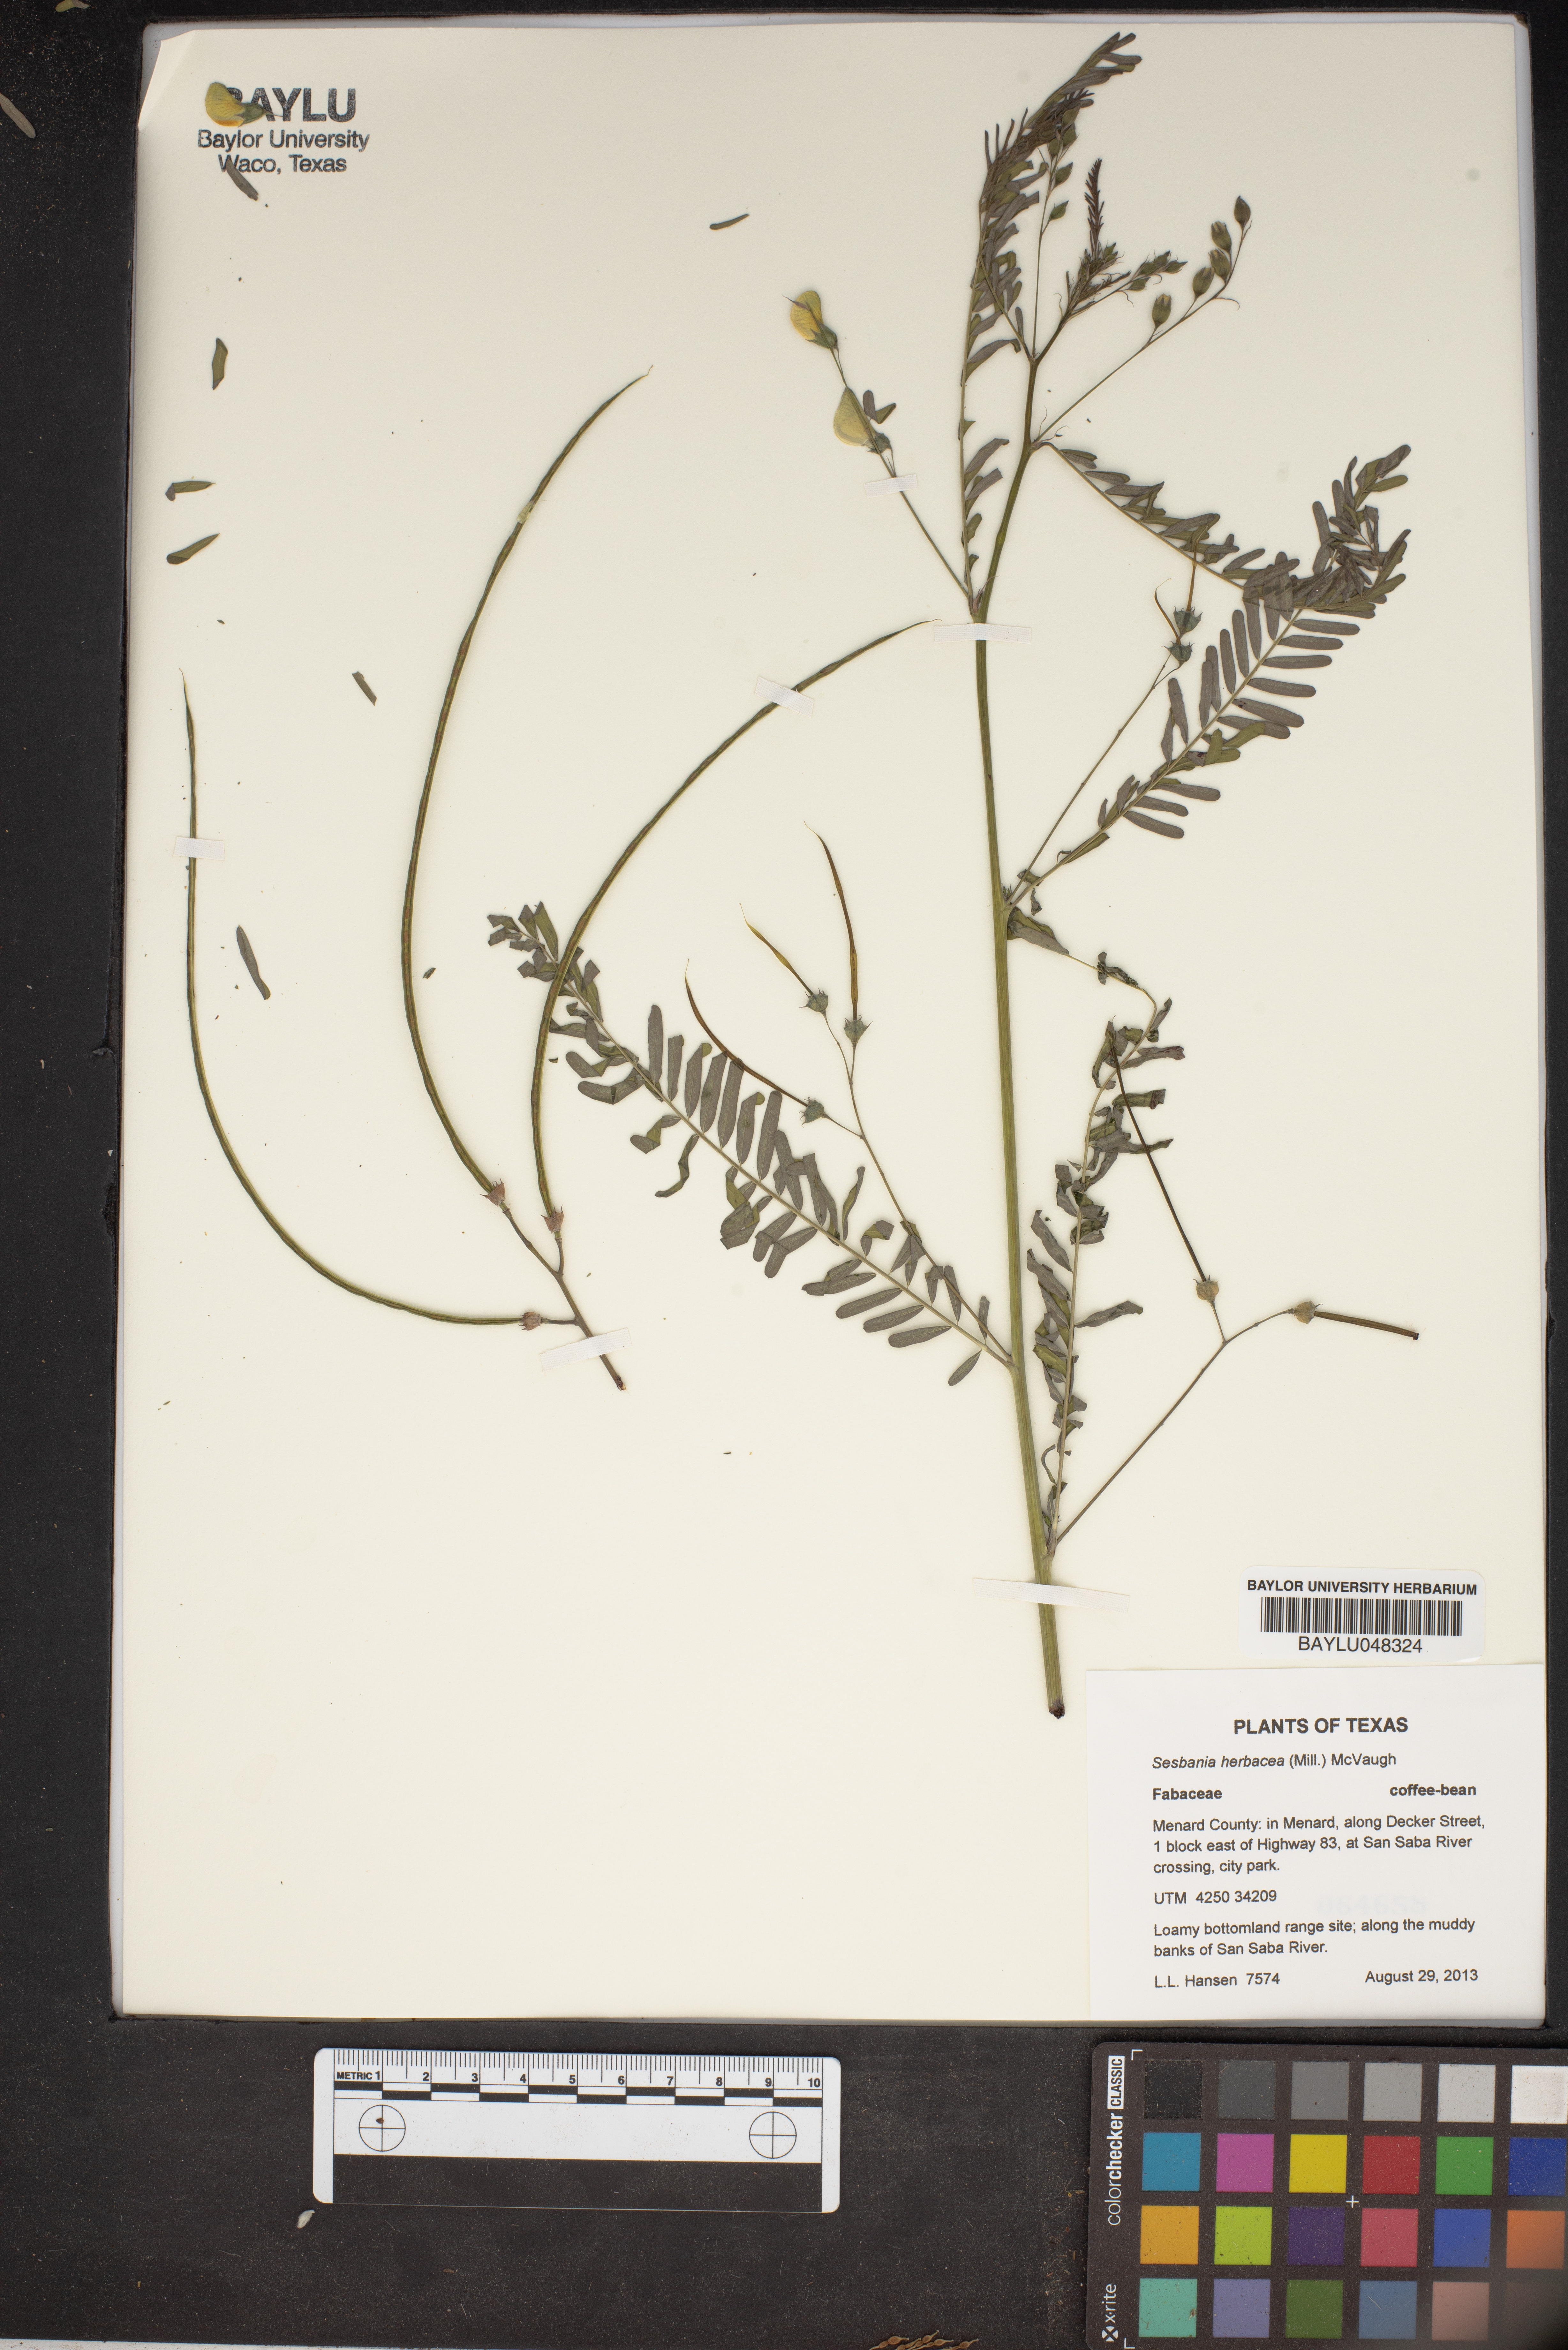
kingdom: Plantae
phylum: Tracheophyta
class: Magnoliopsida
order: Fabales
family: Fabaceae
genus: Sesbania
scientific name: Sesbania herbacea
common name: Bigpod sesbania
